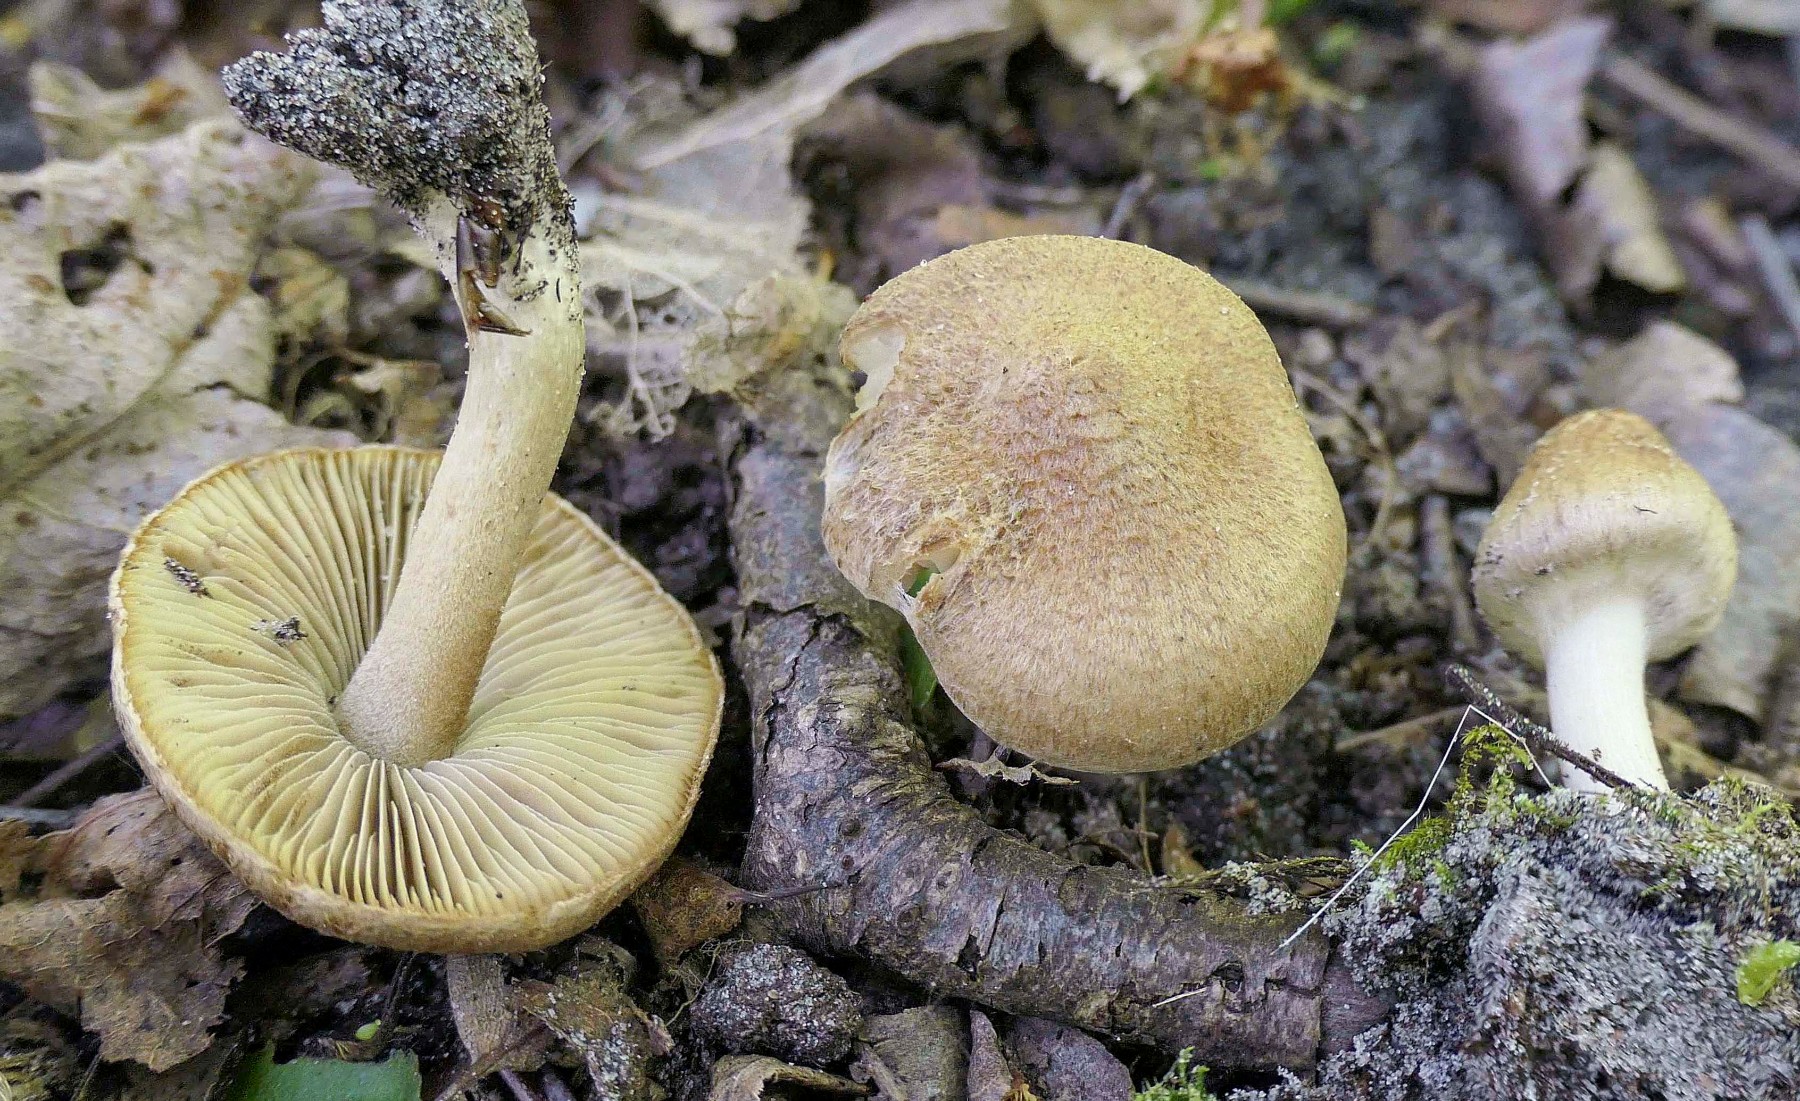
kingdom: Fungi
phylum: Basidiomycota
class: Agaricomycetes
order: Agaricales
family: Inocybaceae
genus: Inocybe
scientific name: Inocybe dulcamara
